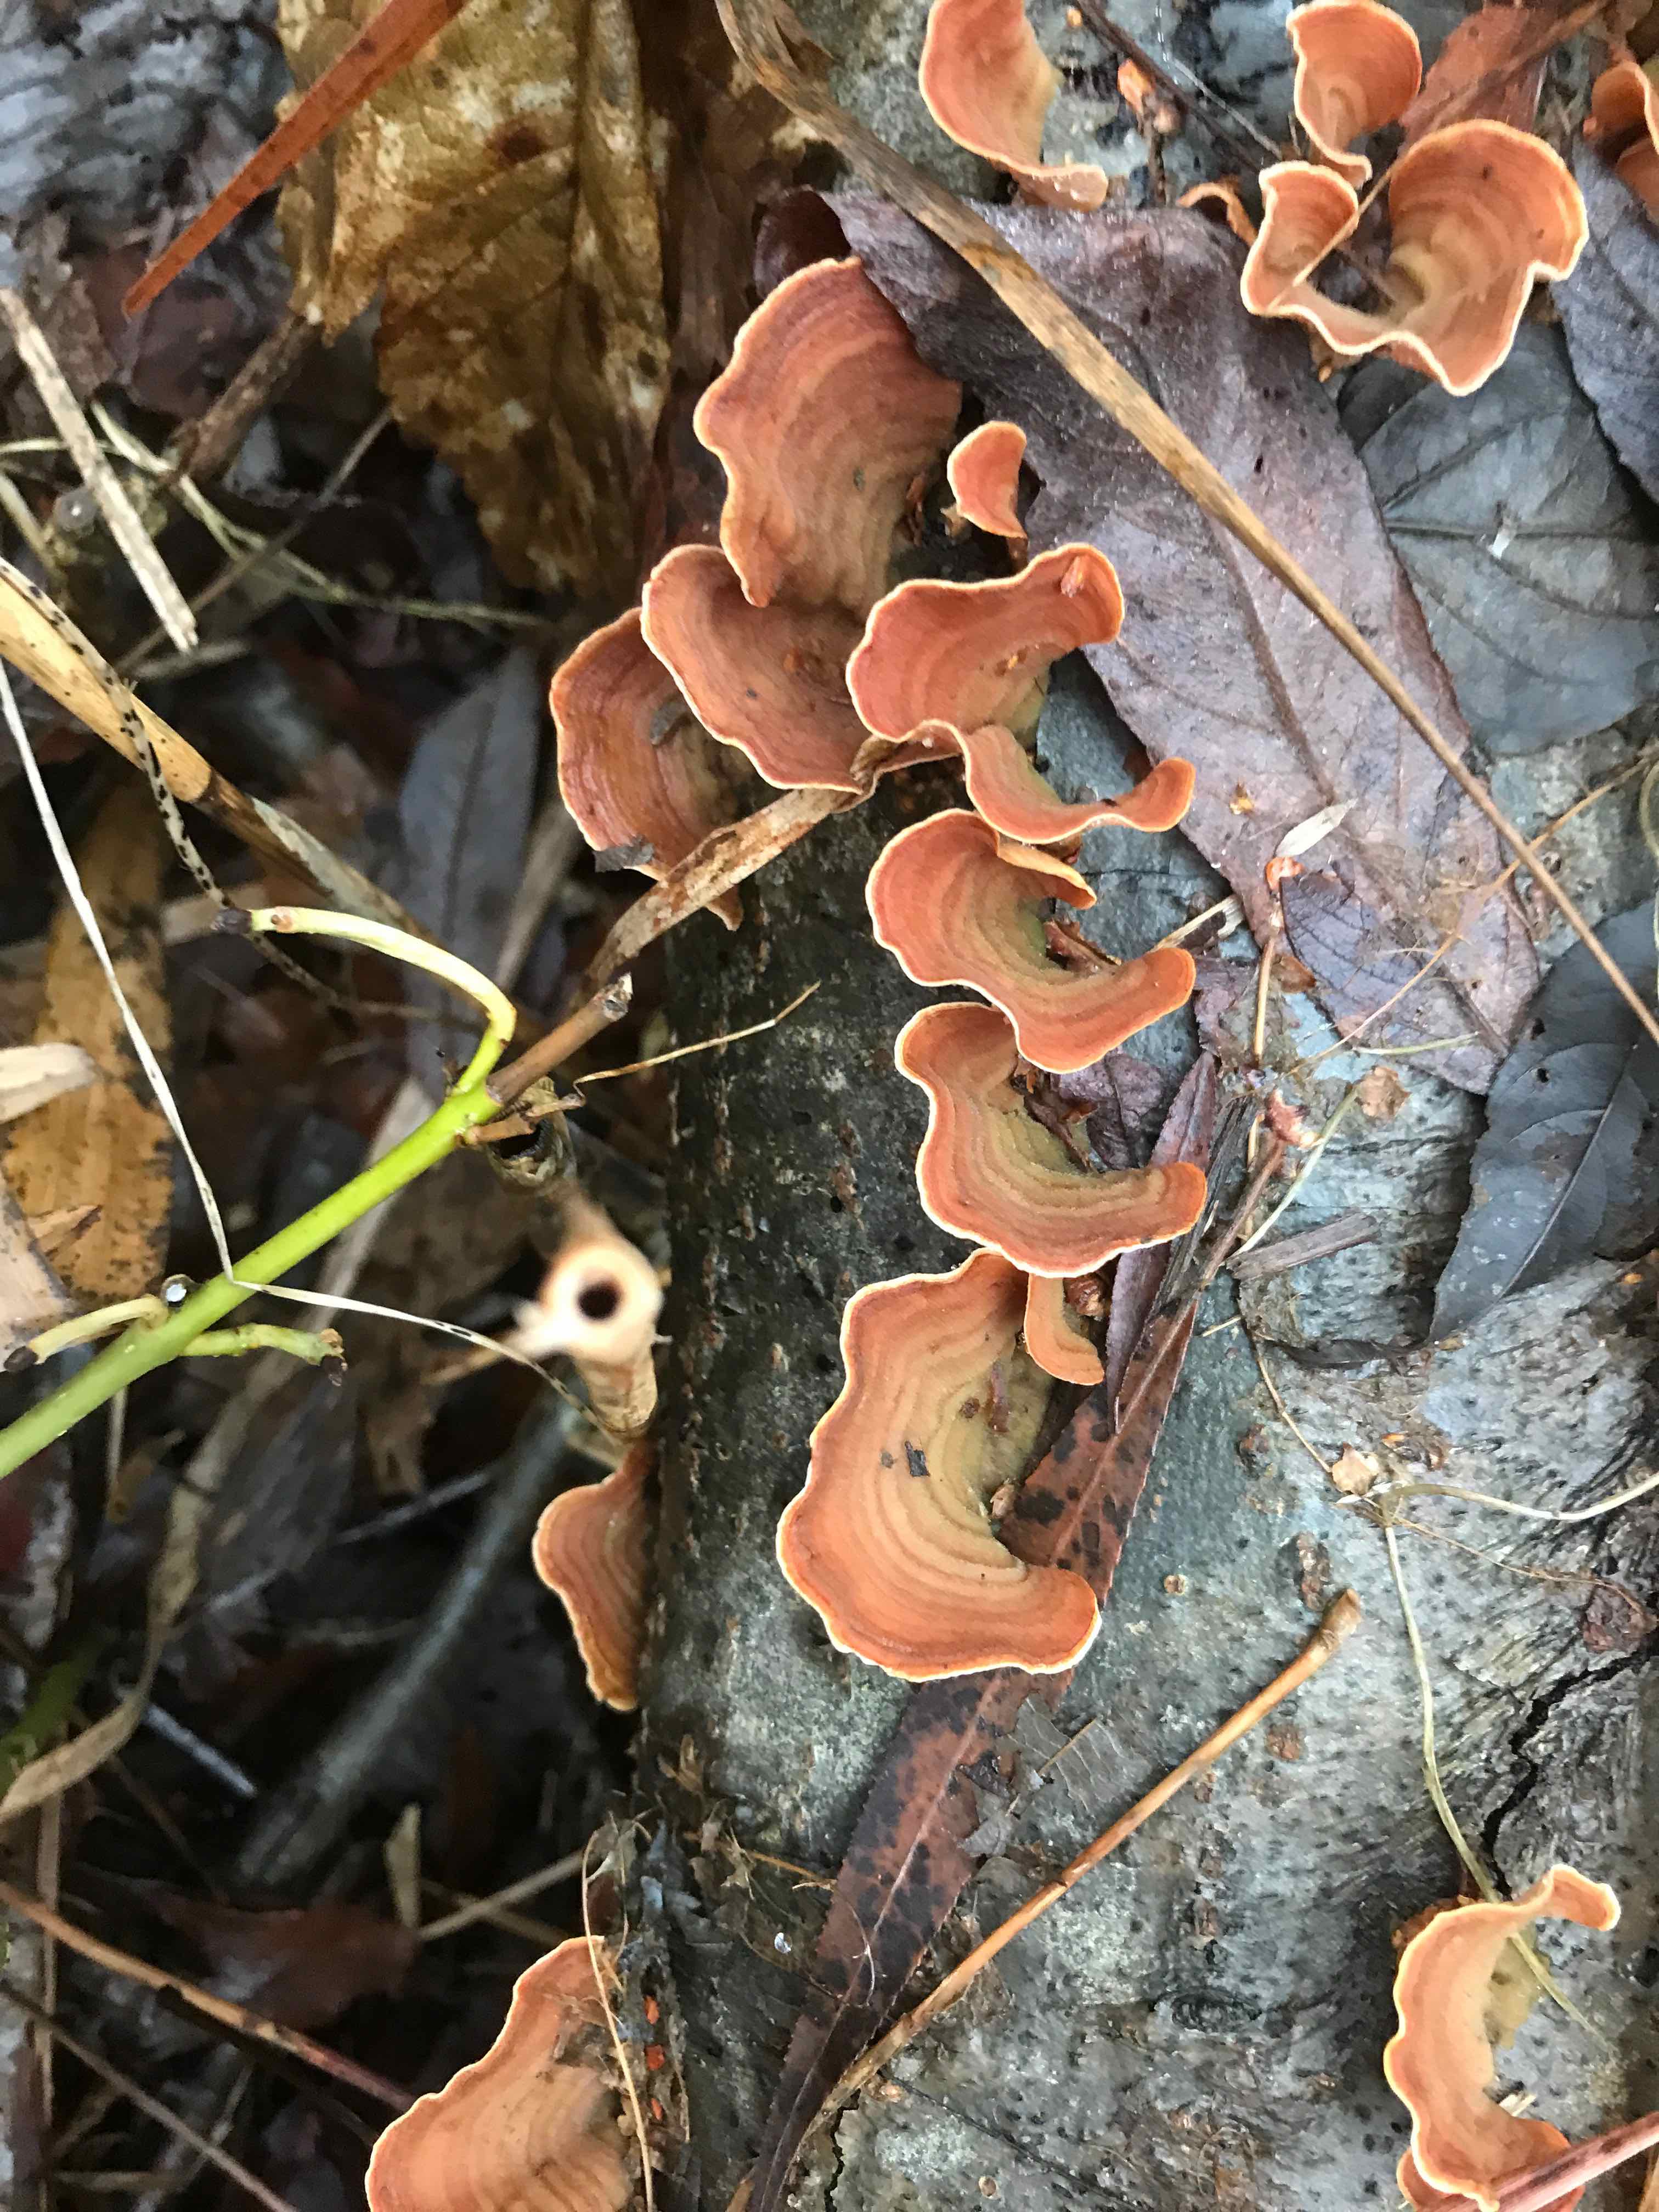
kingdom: Fungi
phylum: Basidiomycota
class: Agaricomycetes
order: Russulales
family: Stereaceae
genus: Stereum
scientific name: Stereum subtomentosum
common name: smuk lædersvamp
